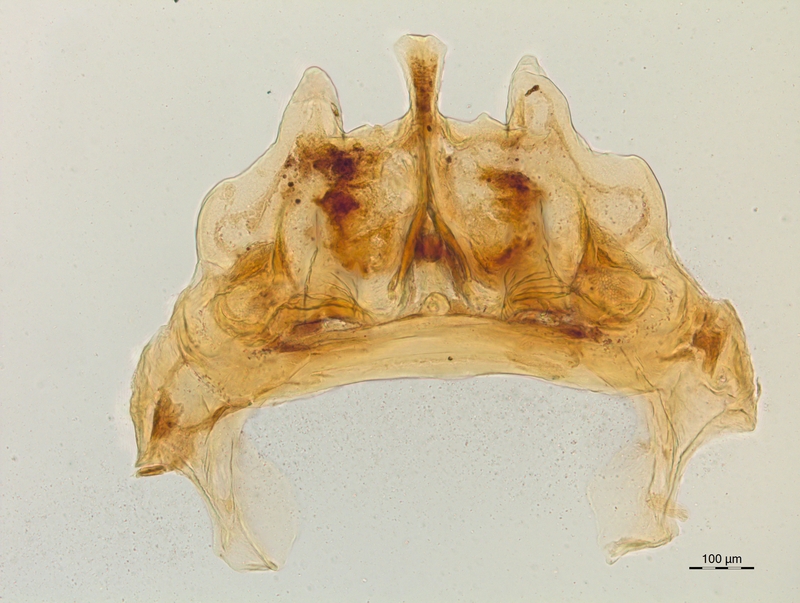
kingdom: Animalia
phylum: Arthropoda
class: Diplopoda
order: Chordeumatida
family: Craspedosomatidae
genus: Craspedosoma
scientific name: Craspedosoma rawlinsii
